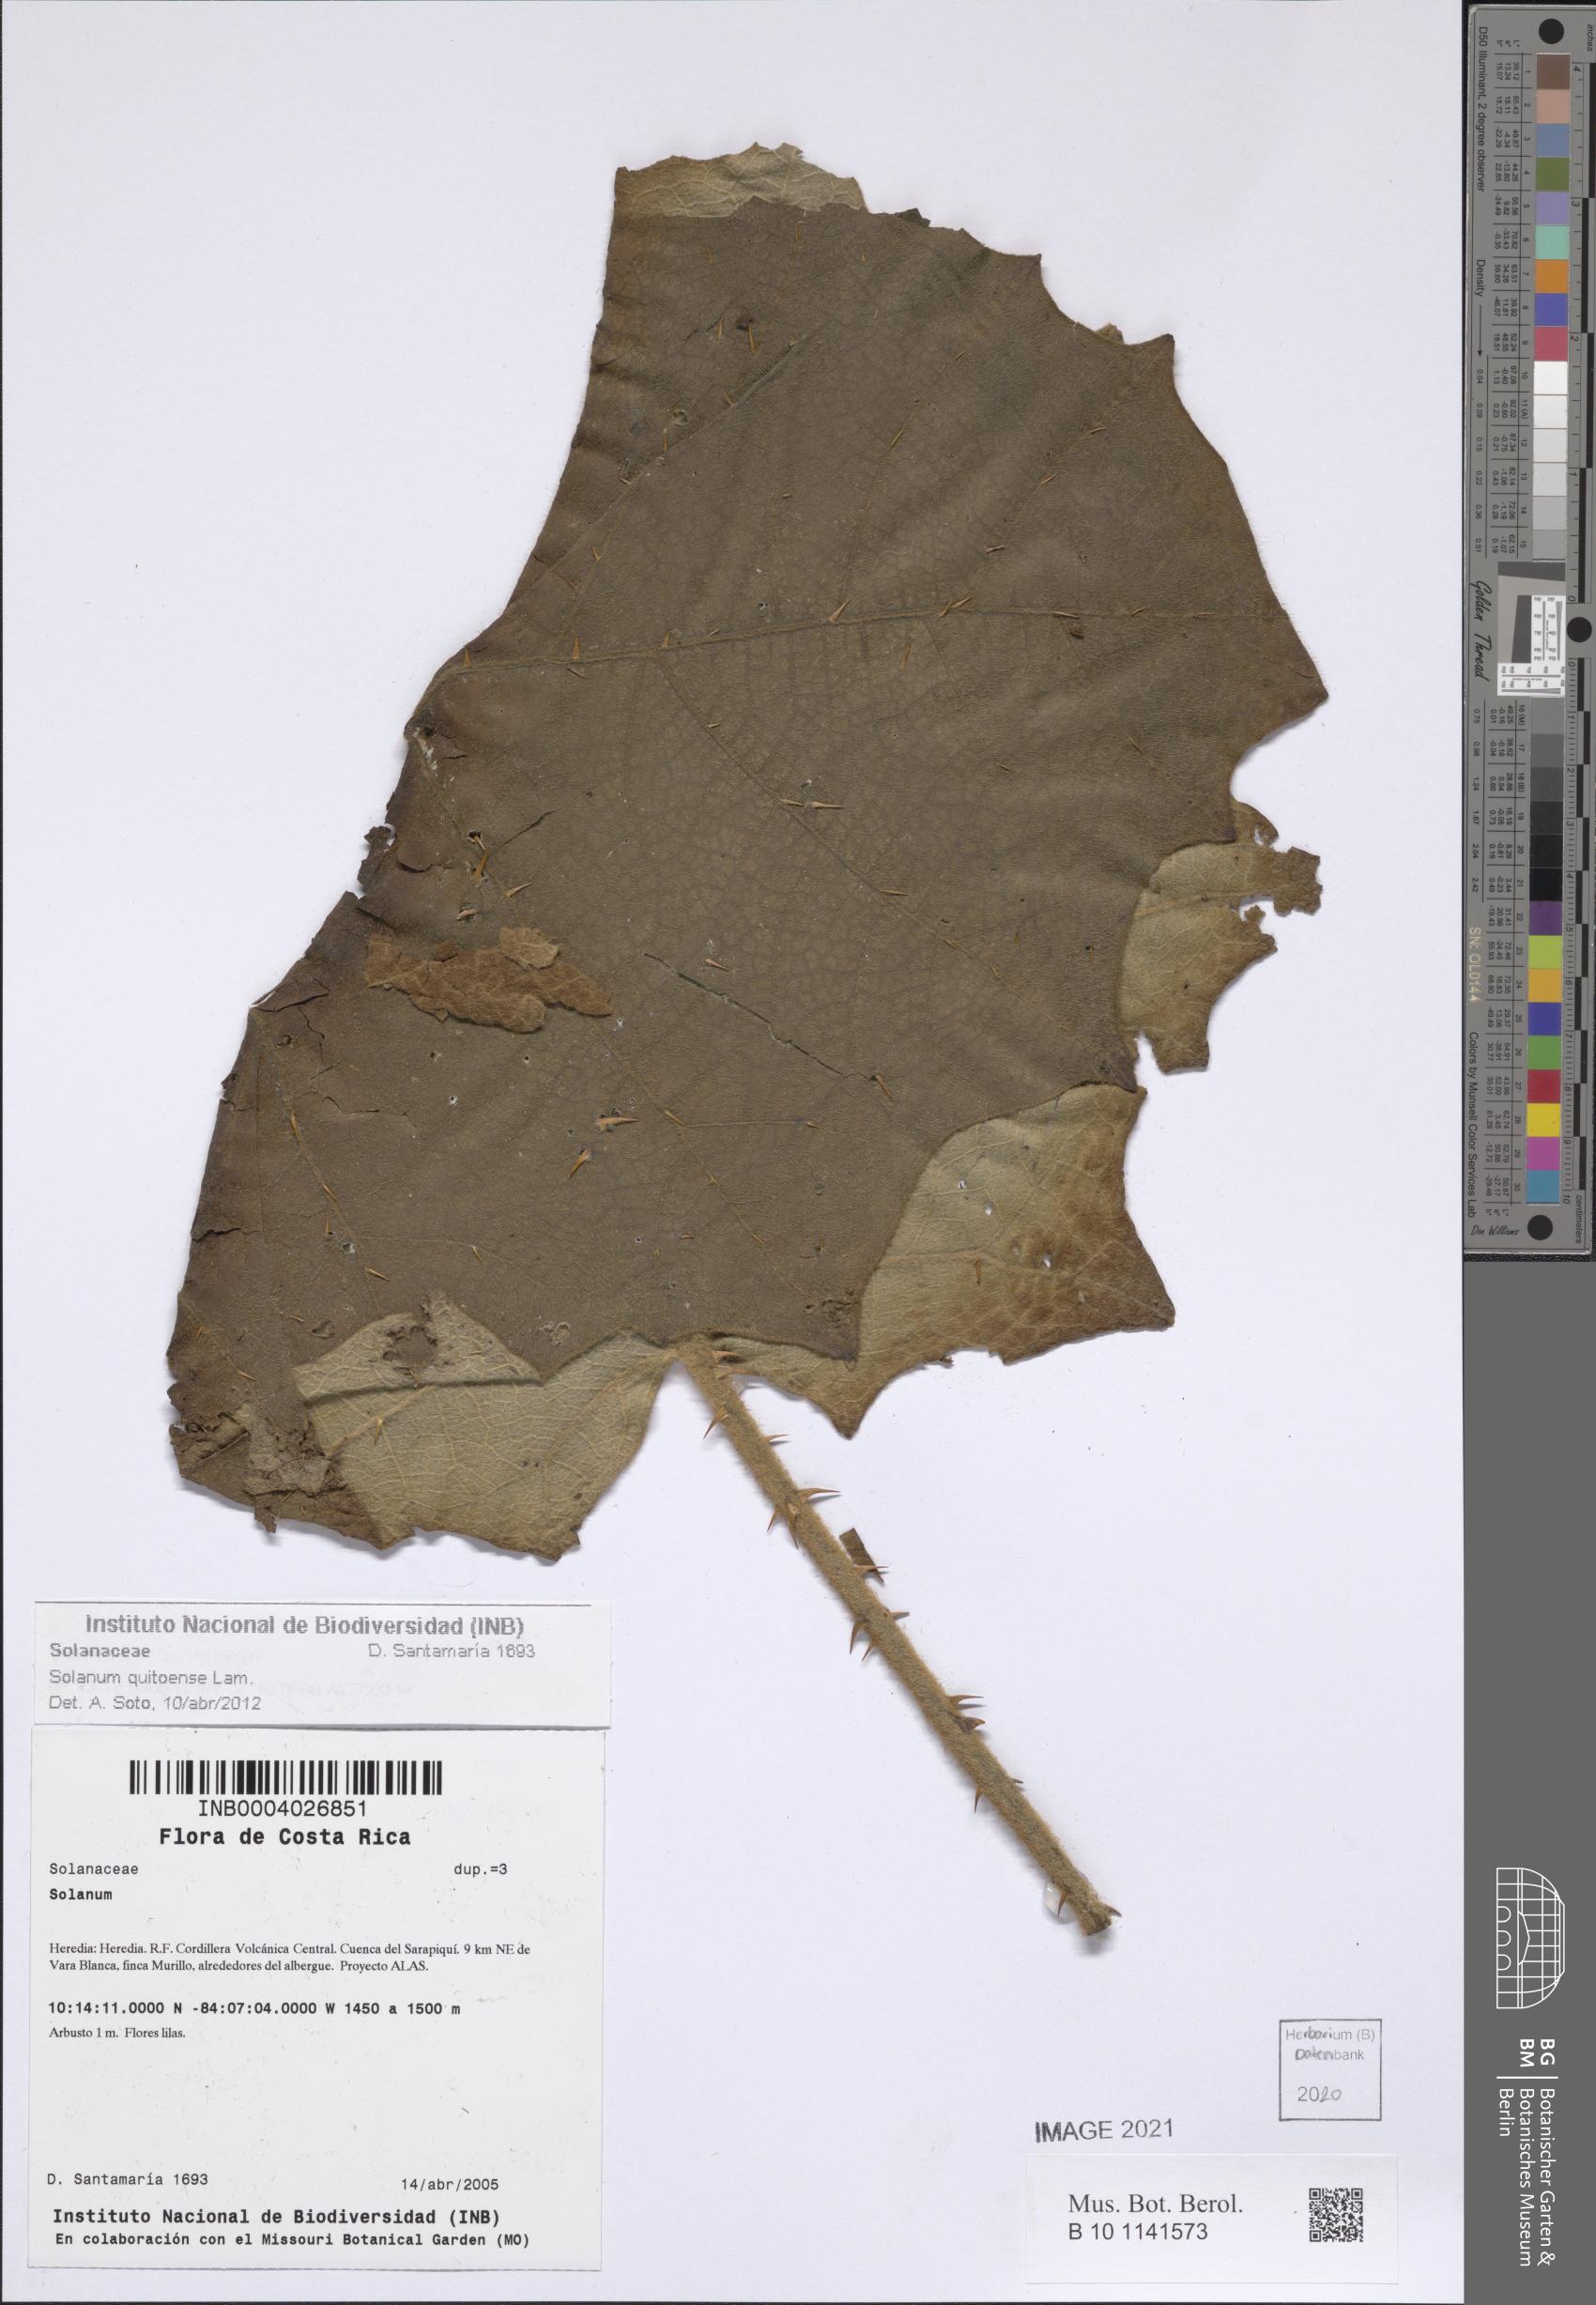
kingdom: Plantae
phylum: Tracheophyta
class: Magnoliopsida
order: Solanales
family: Solanaceae
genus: Solanum
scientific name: Solanum quitoense
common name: Quito-orange
